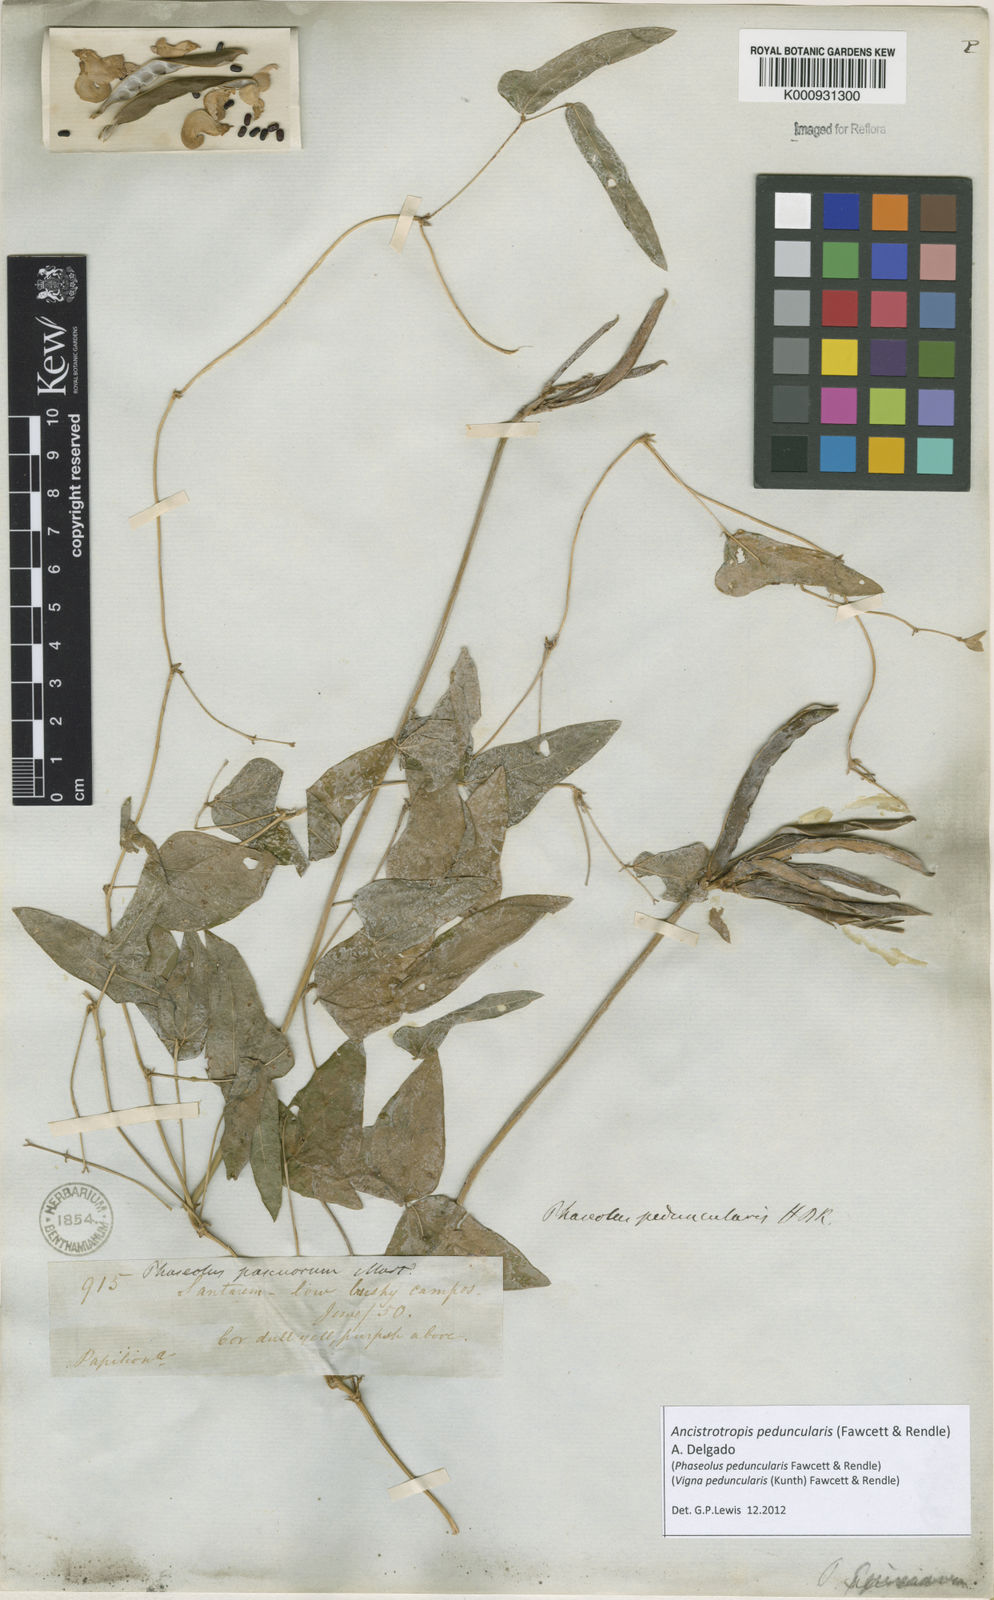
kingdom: Plantae
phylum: Tracheophyta
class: Magnoliopsida
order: Fabales
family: Fabaceae
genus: Ancistrotropis
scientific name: Ancistrotropis peduncularis
